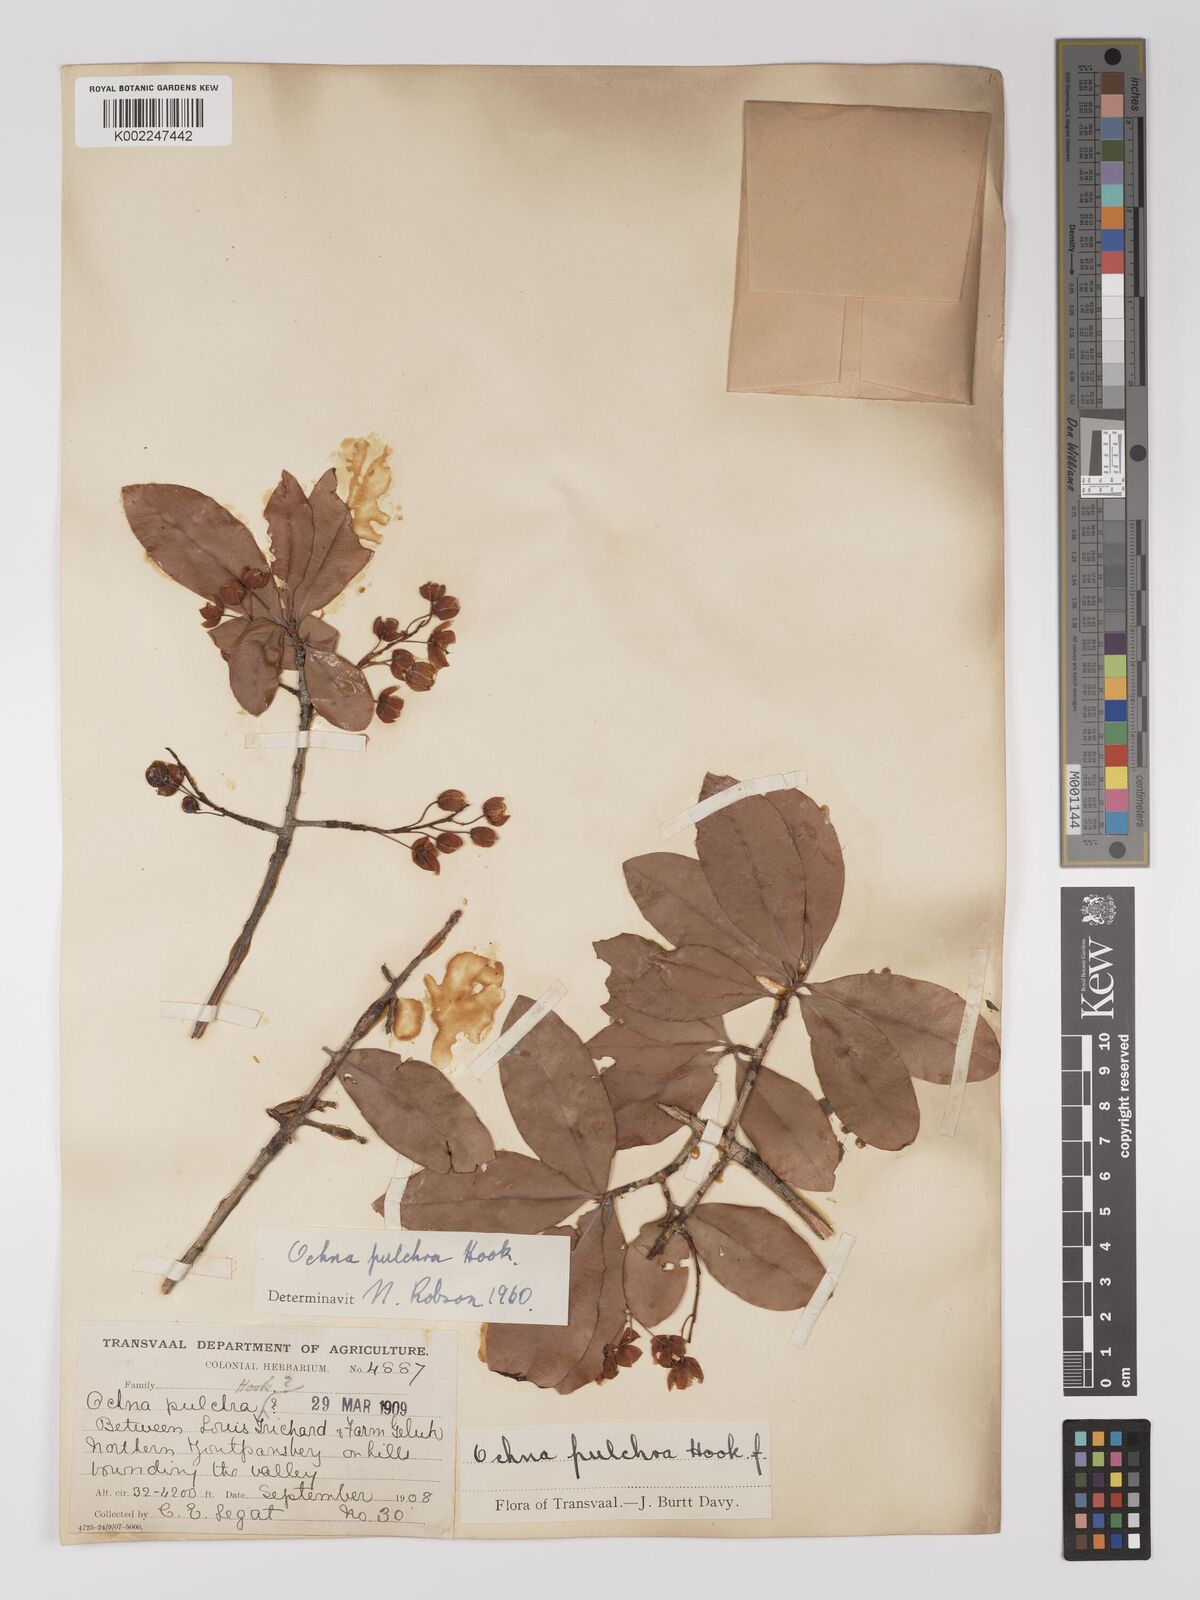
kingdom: Plantae
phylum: Tracheophyta
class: Magnoliopsida
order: Malpighiales
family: Ochnaceae
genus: Ochna
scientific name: Ochna pulchra
